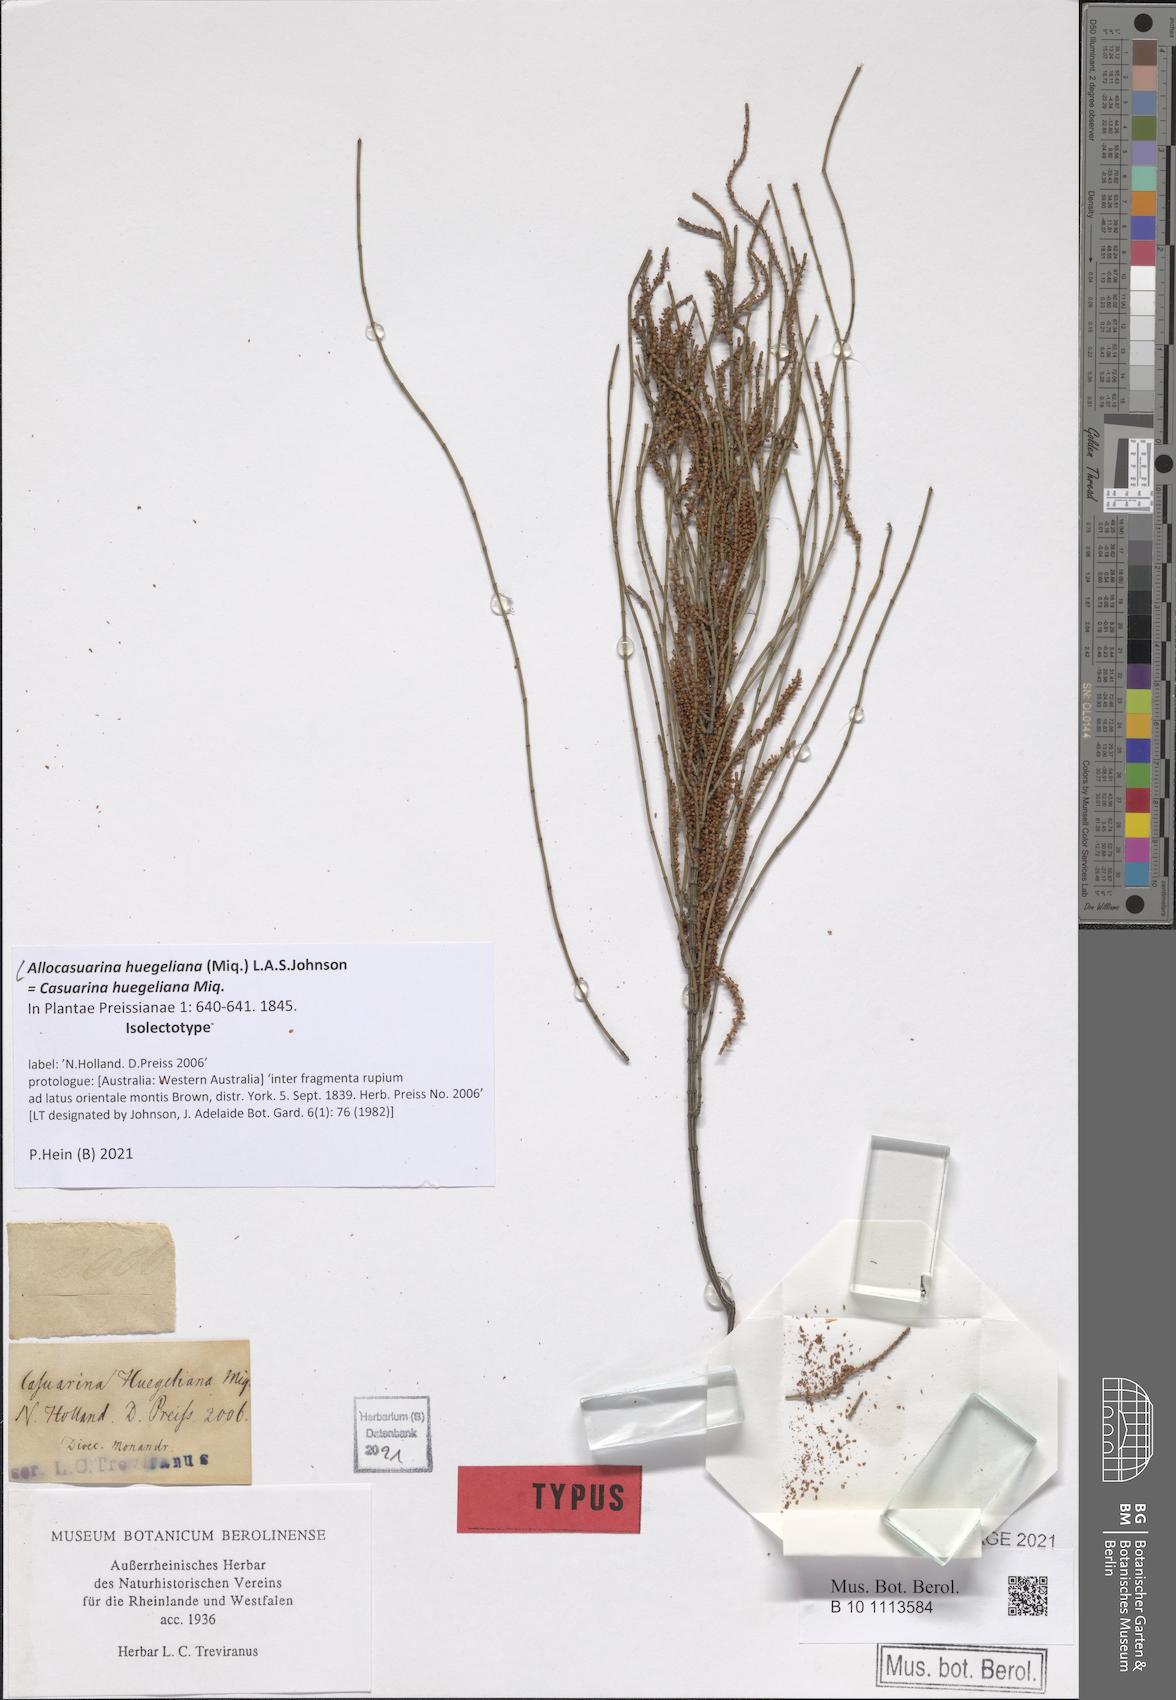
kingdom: Plantae
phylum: Tracheophyta
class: Magnoliopsida
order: Fagales
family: Casuarinaceae
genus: Allocasuarina
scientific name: Allocasuarina huegeliana
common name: Rock she-oak
